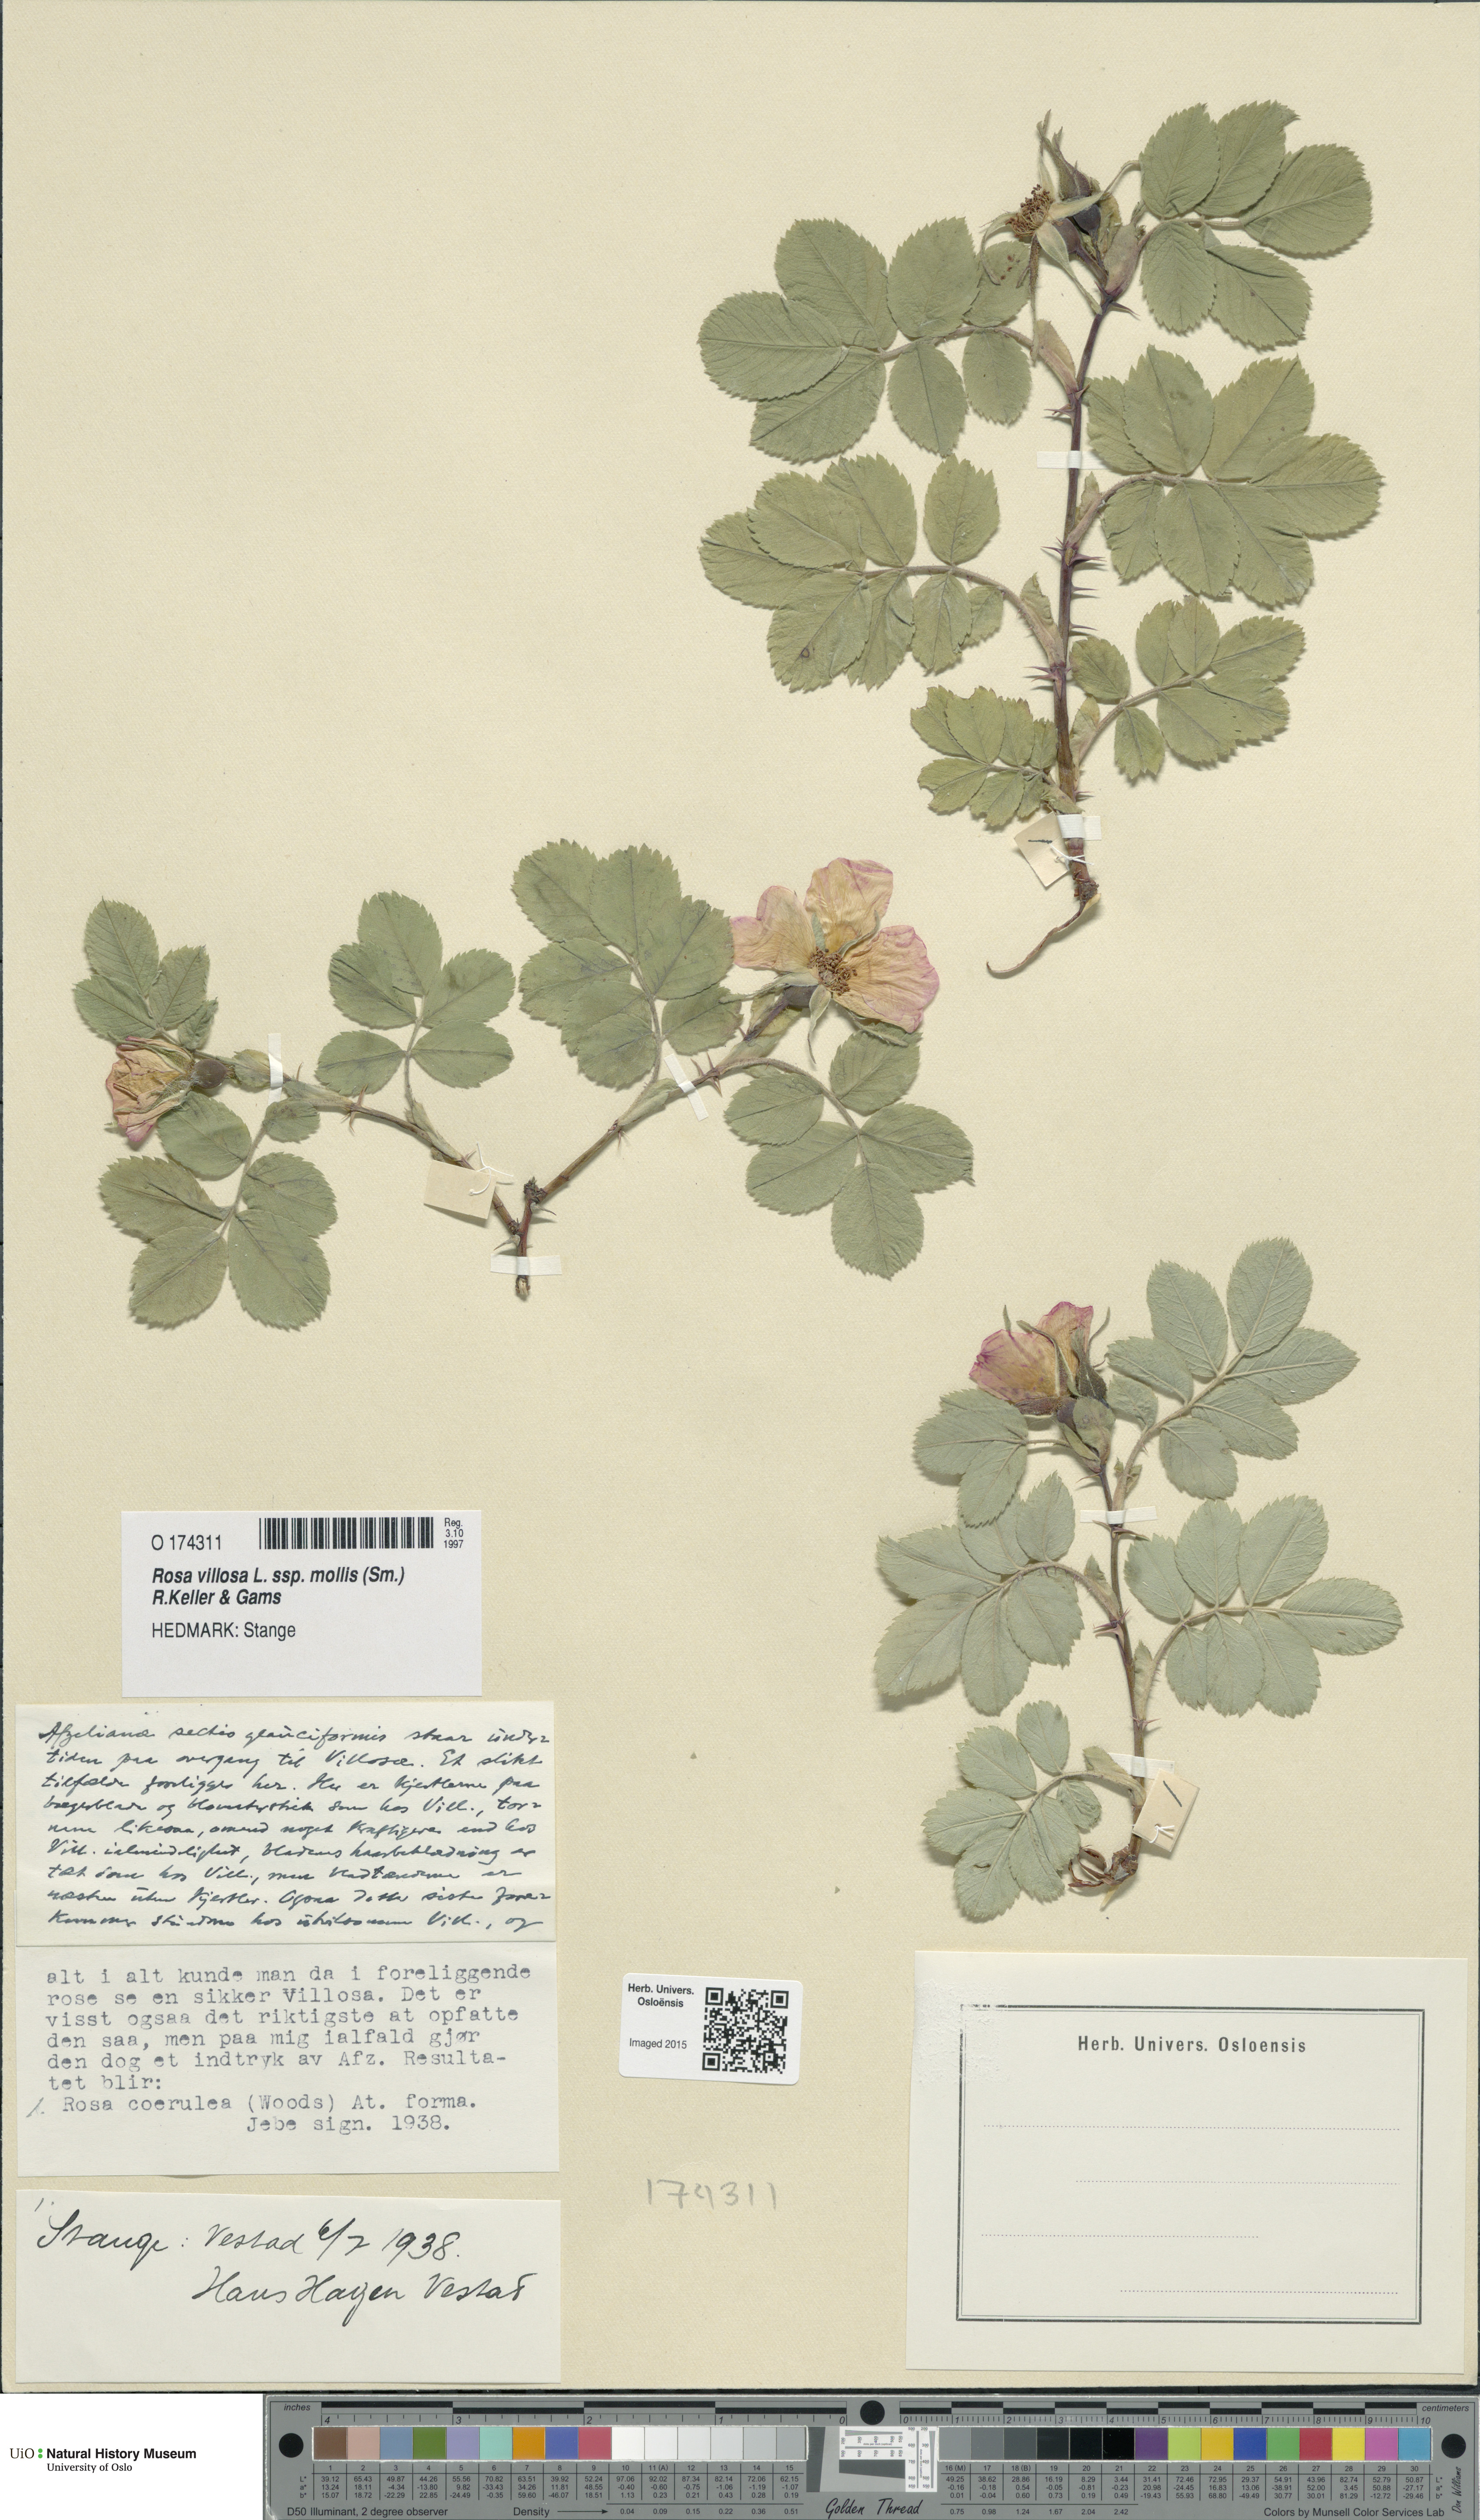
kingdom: Plantae
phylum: Tracheophyta
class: Magnoliopsida
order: Rosales
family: Rosaceae
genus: Rosa
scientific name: Rosa mollis
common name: Rose
